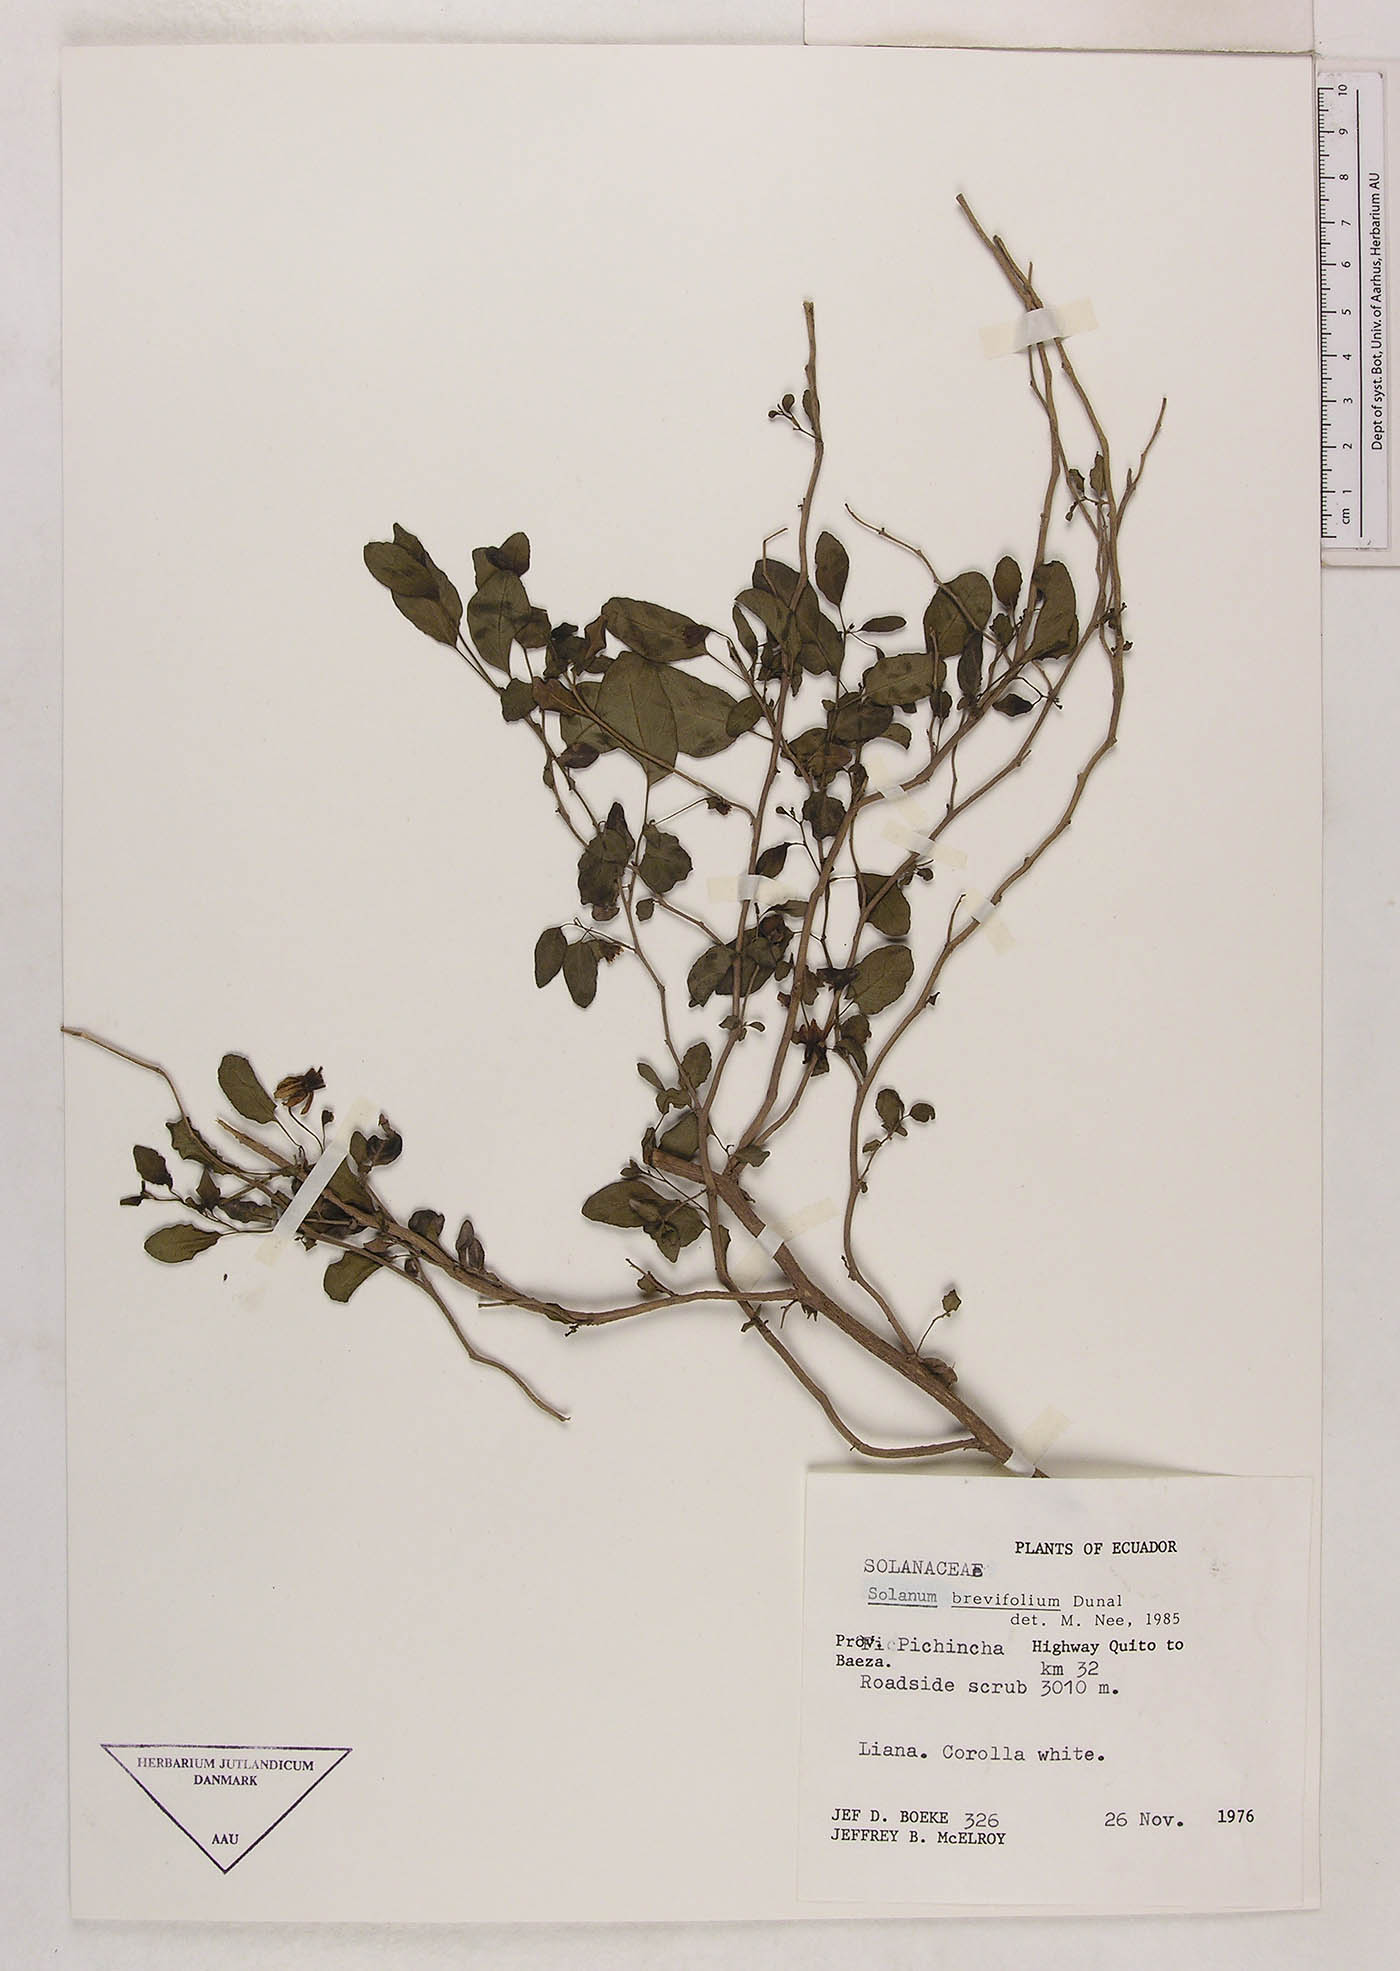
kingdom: Plantae
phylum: Tracheophyta
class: Magnoliopsida
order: Solanales
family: Solanaceae
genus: Solanum
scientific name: Solanum brevifolium
